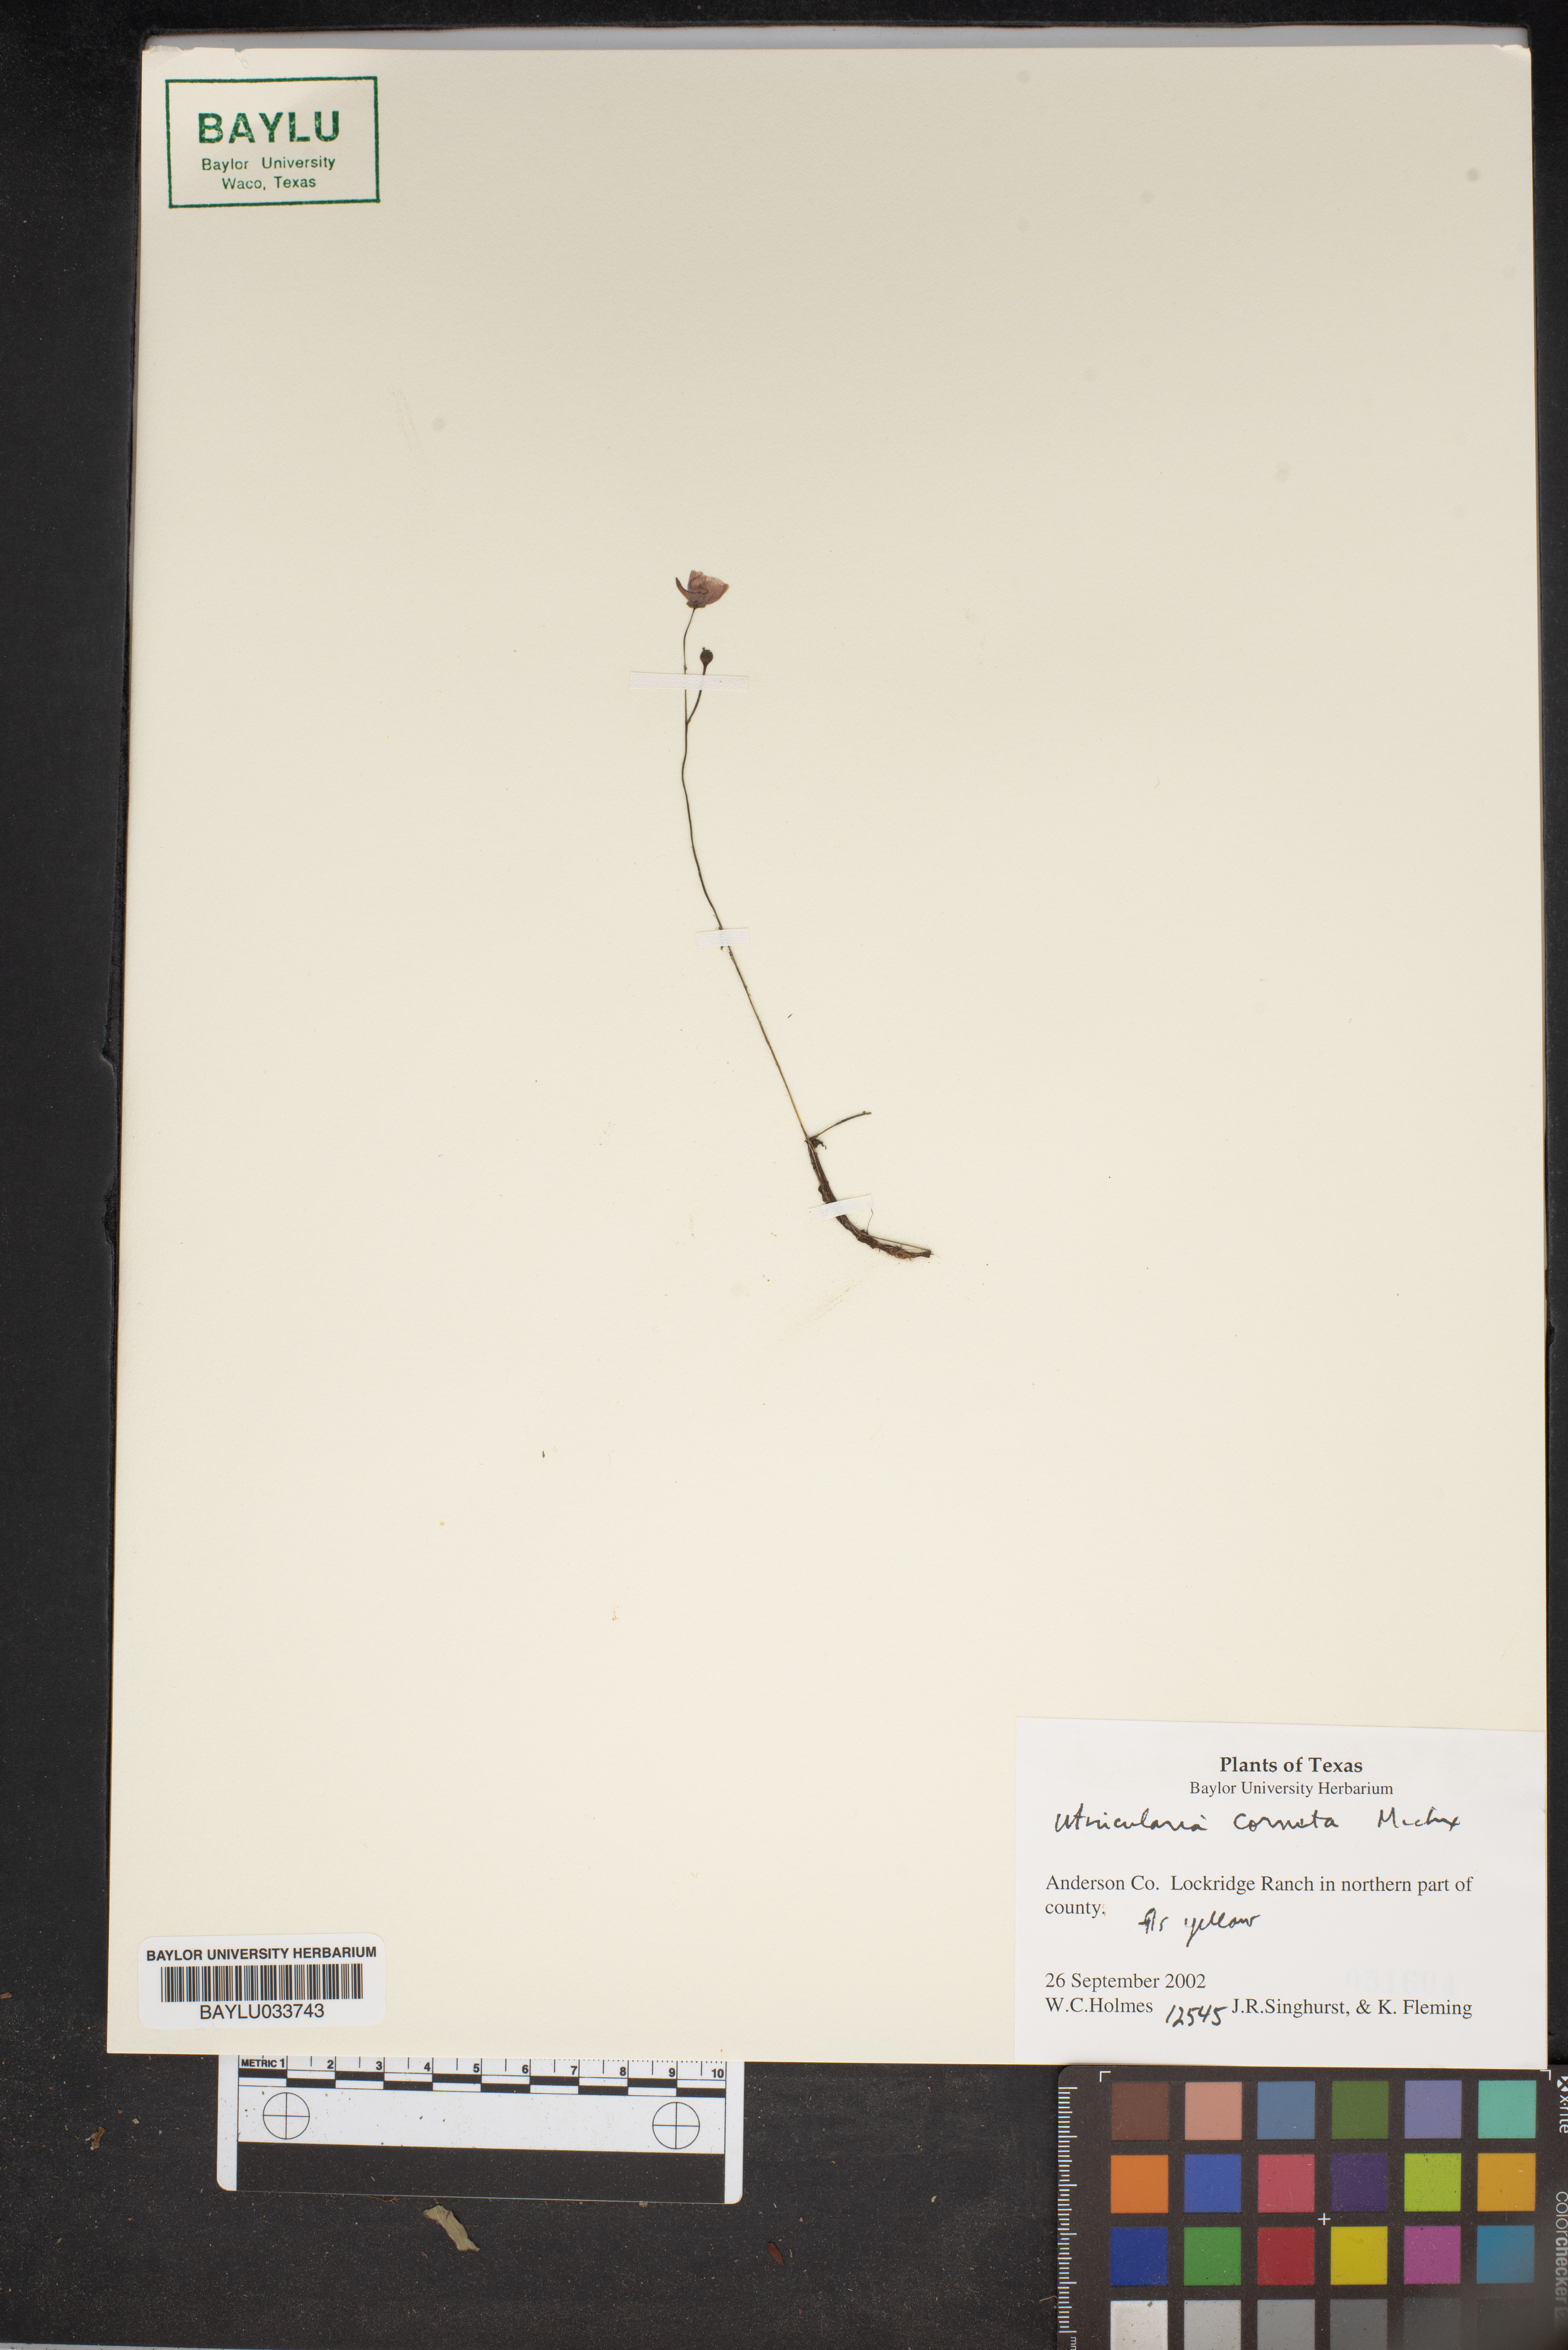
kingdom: Plantae
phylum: Tracheophyta
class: Magnoliopsida
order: Lamiales
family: Lentibulariaceae
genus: Utricularia
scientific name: Utricularia cornuta
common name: Horned bladderwort
